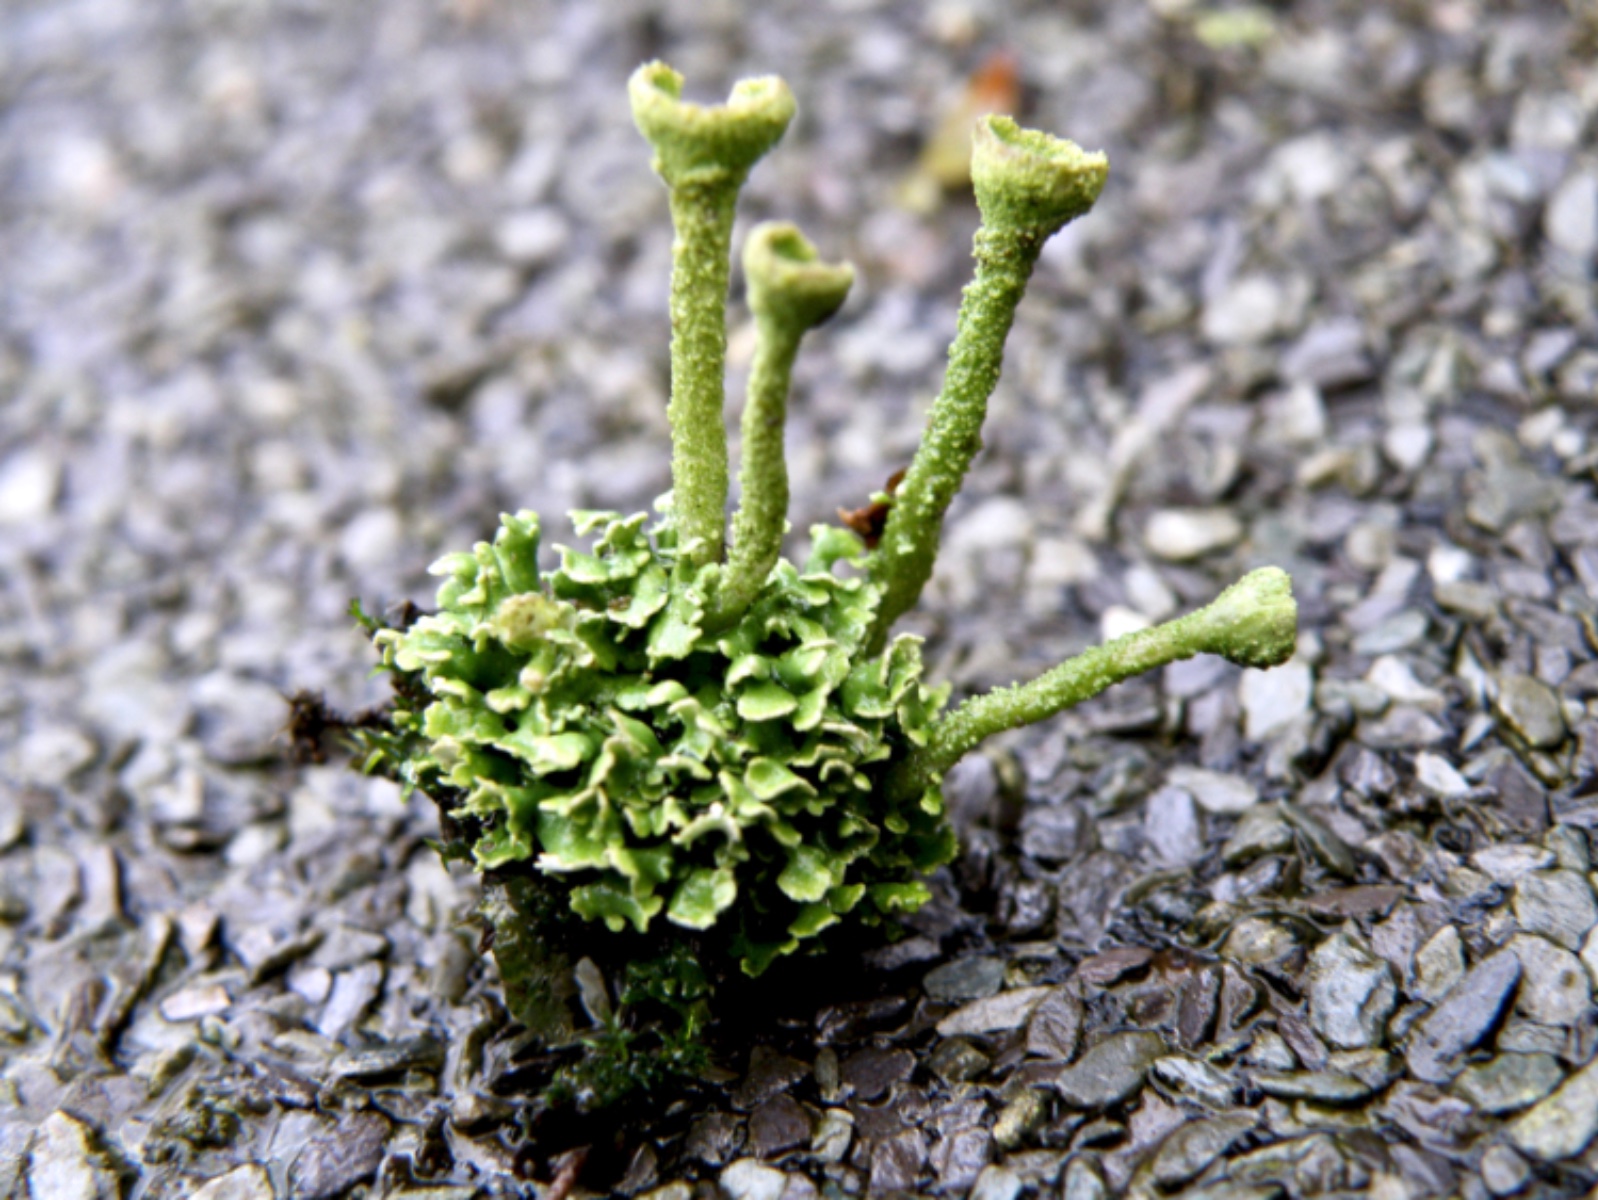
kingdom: Fungi
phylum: Ascomycota
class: Lecanoromycetes
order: Lecanorales
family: Cladoniaceae
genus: Cladonia
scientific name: Cladonia
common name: brungrøn bægerlav
